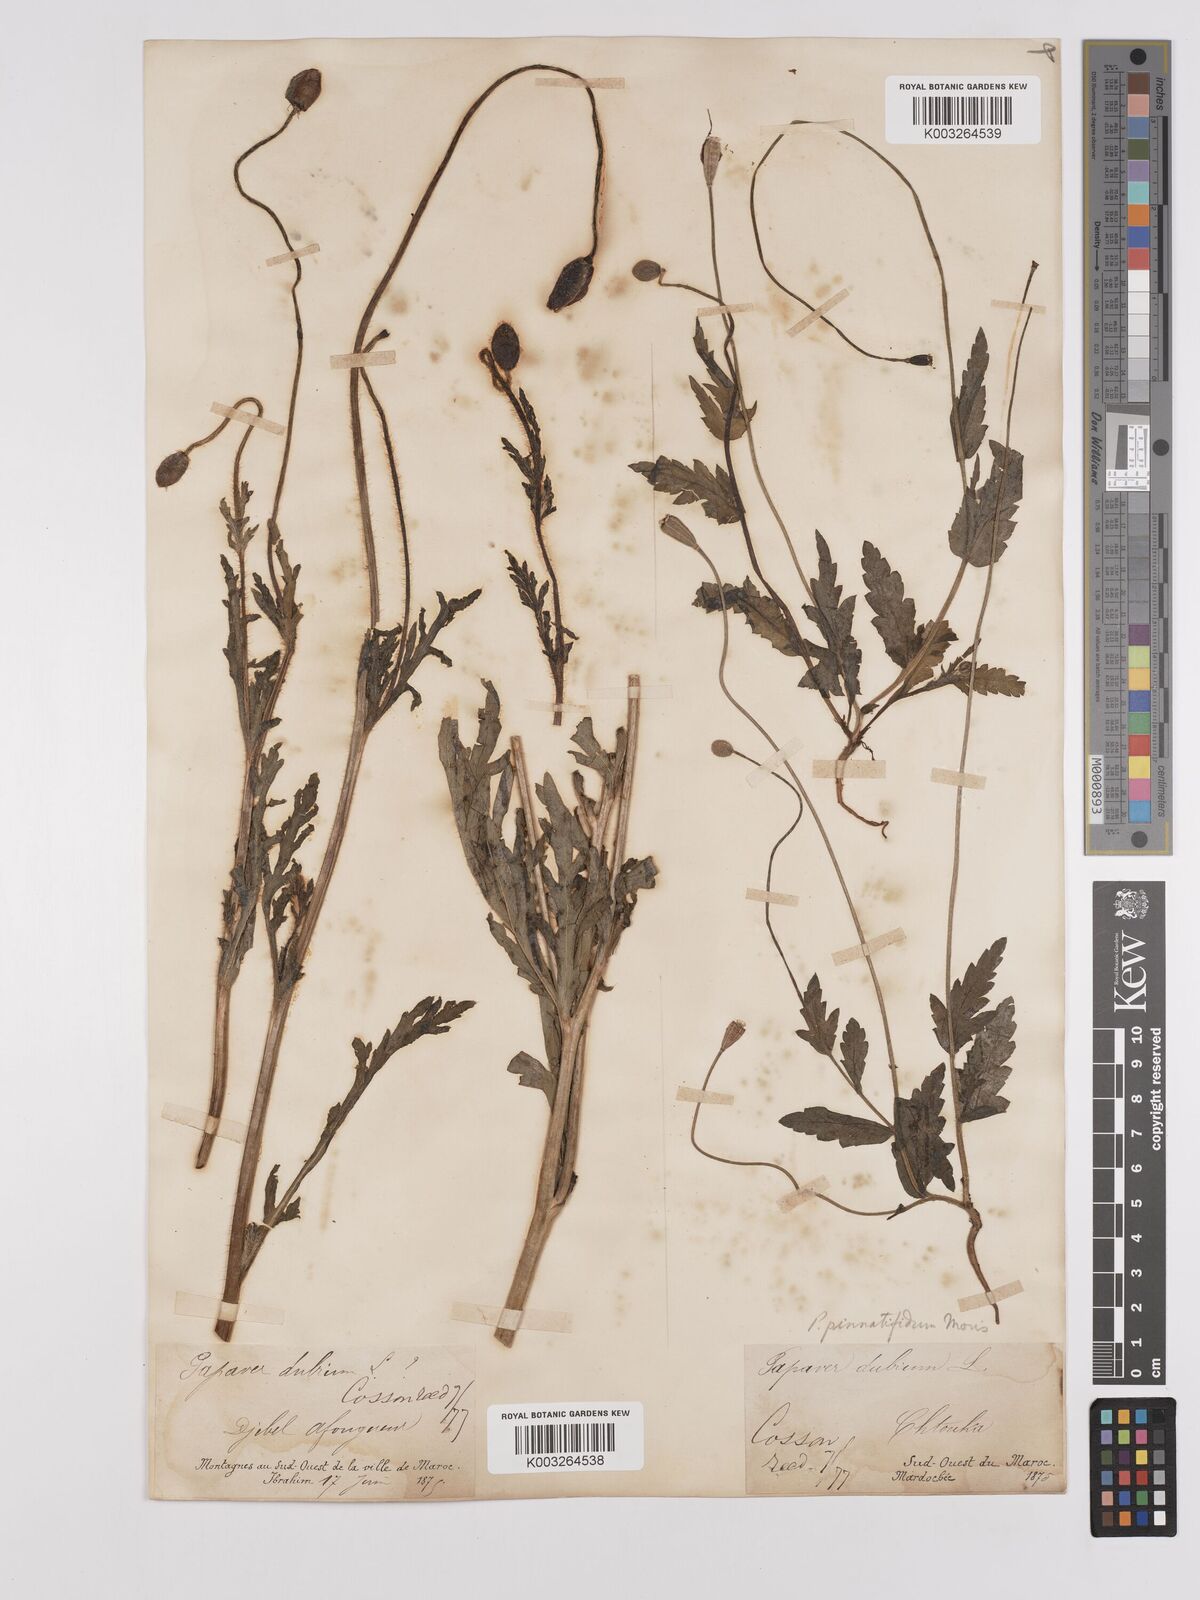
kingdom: Plantae
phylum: Tracheophyta
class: Magnoliopsida
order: Ranunculales
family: Papaveraceae
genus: Papaver
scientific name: Papaver pinnatifidum
